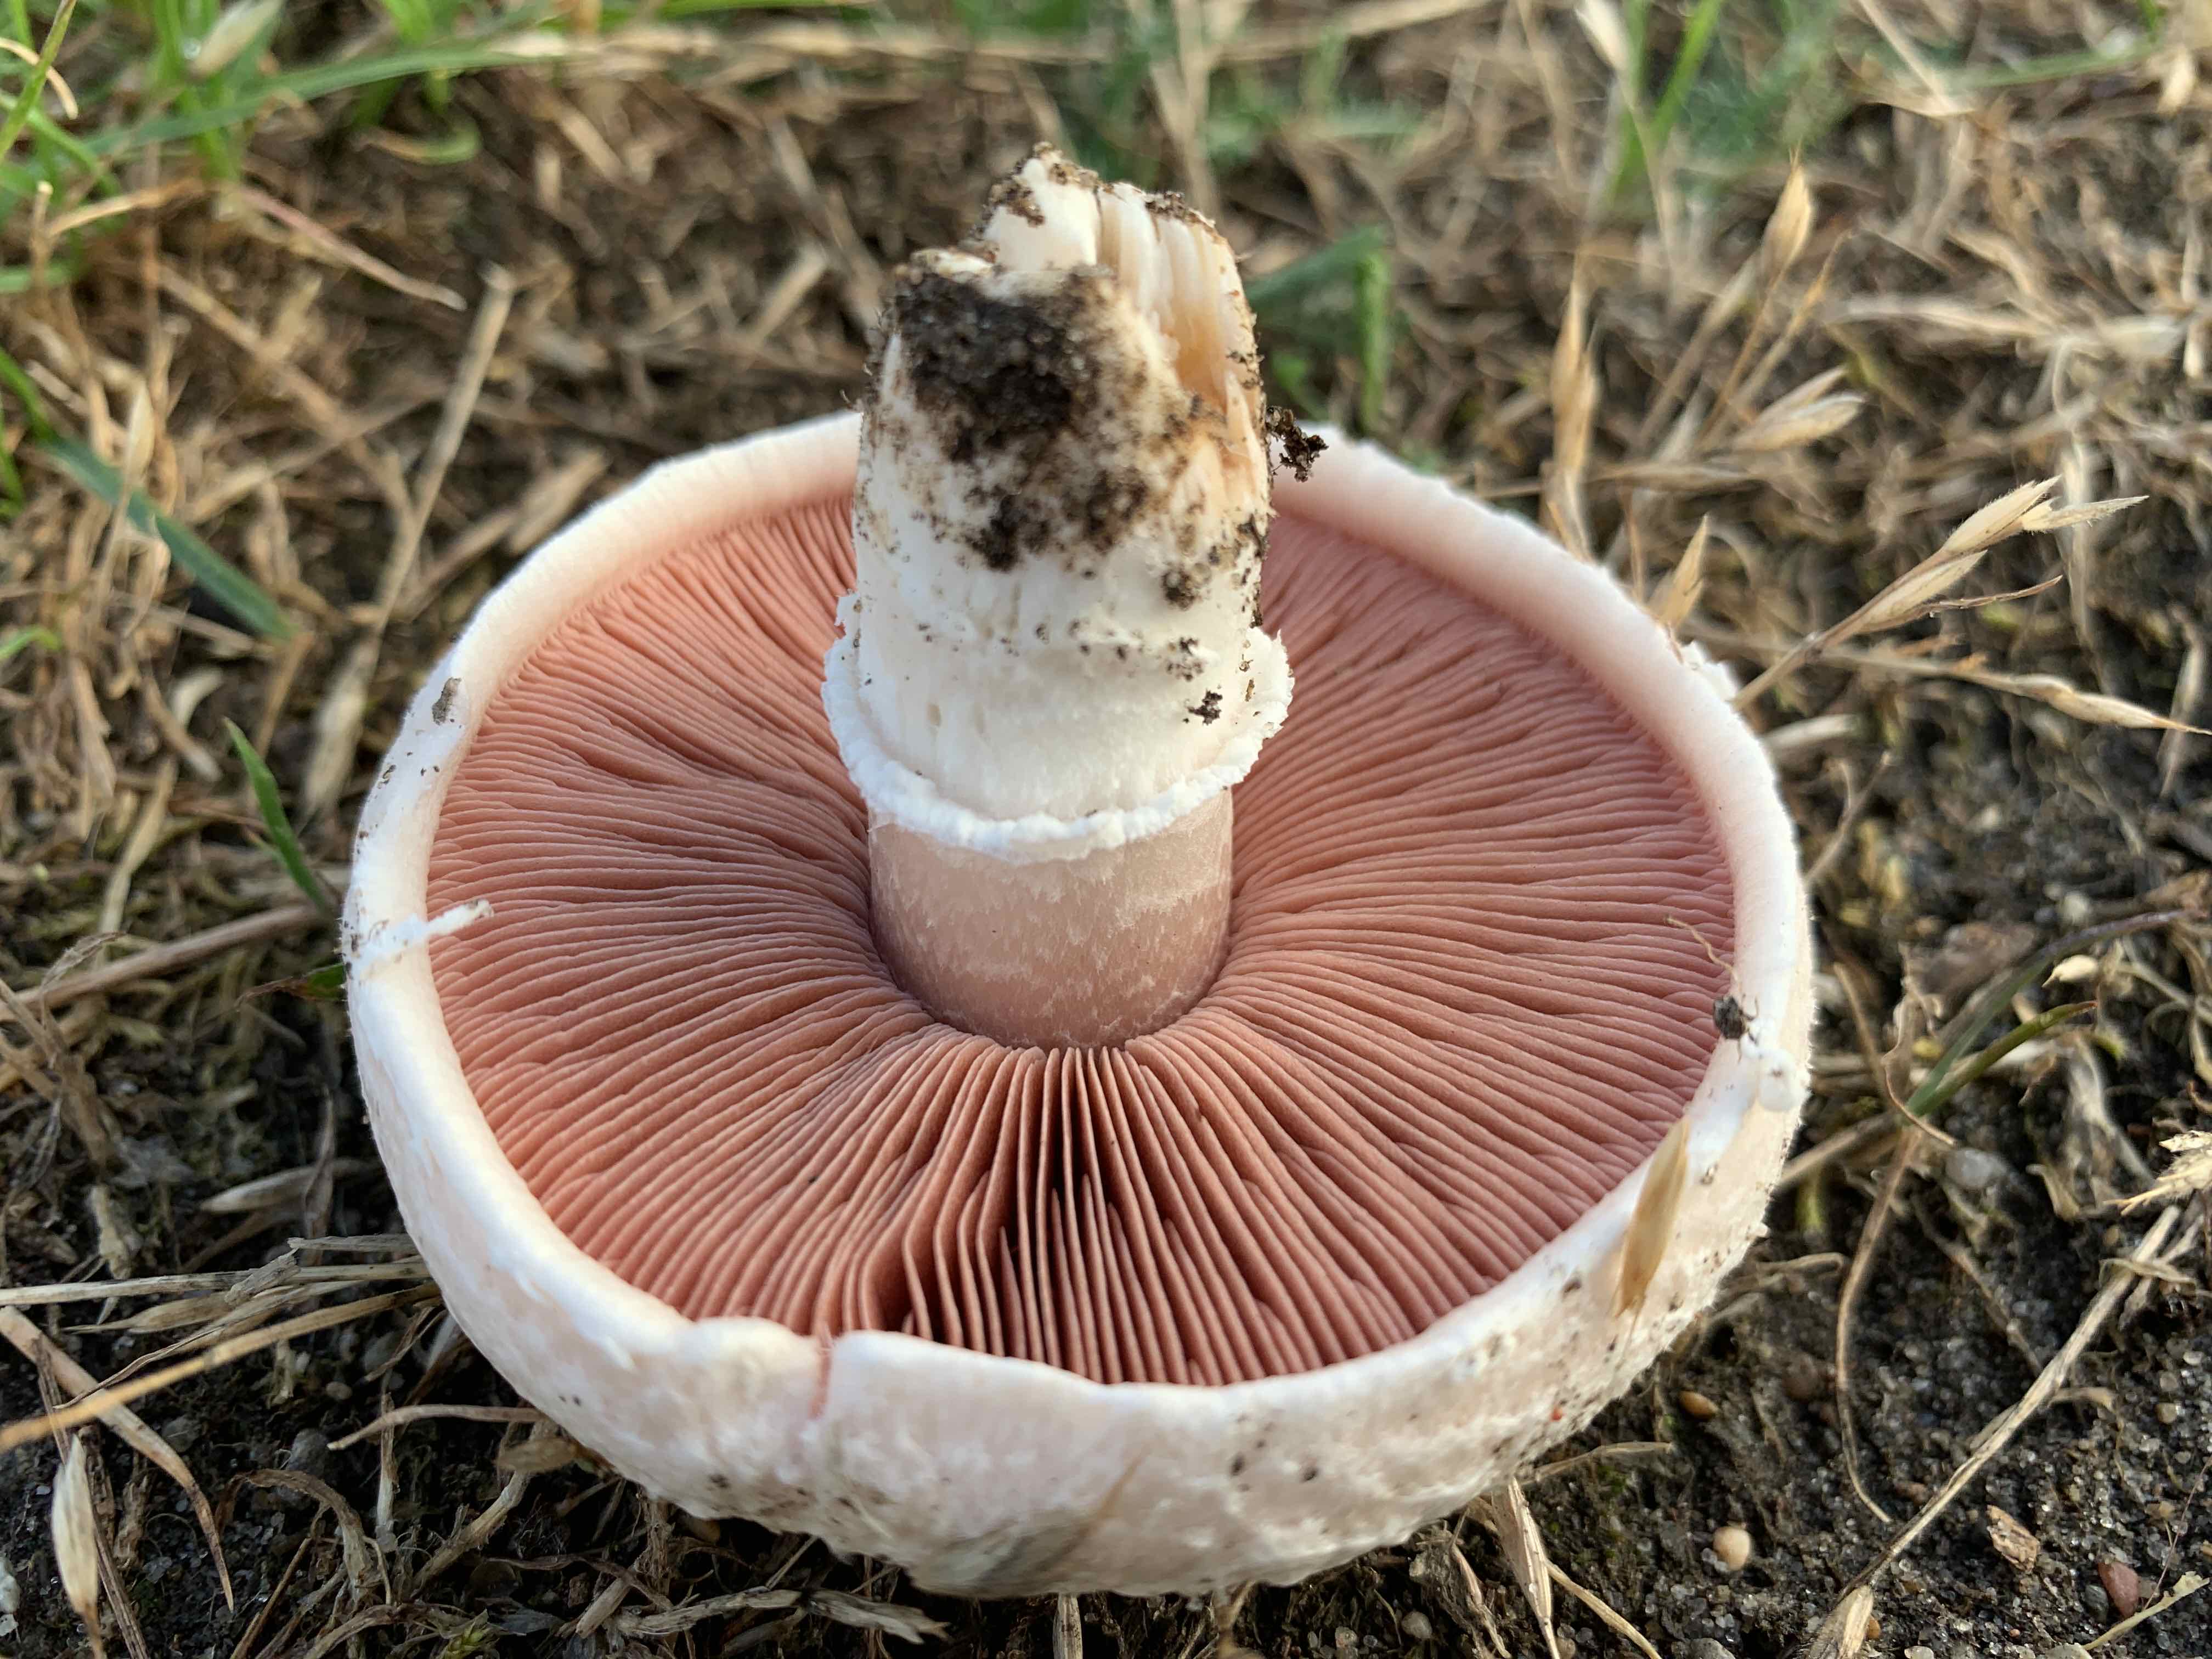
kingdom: Fungi
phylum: Basidiomycota
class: Agaricomycetes
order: Agaricales
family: Agaricaceae
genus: Agaricus
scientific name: Agaricus campestris
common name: mark-champignon
